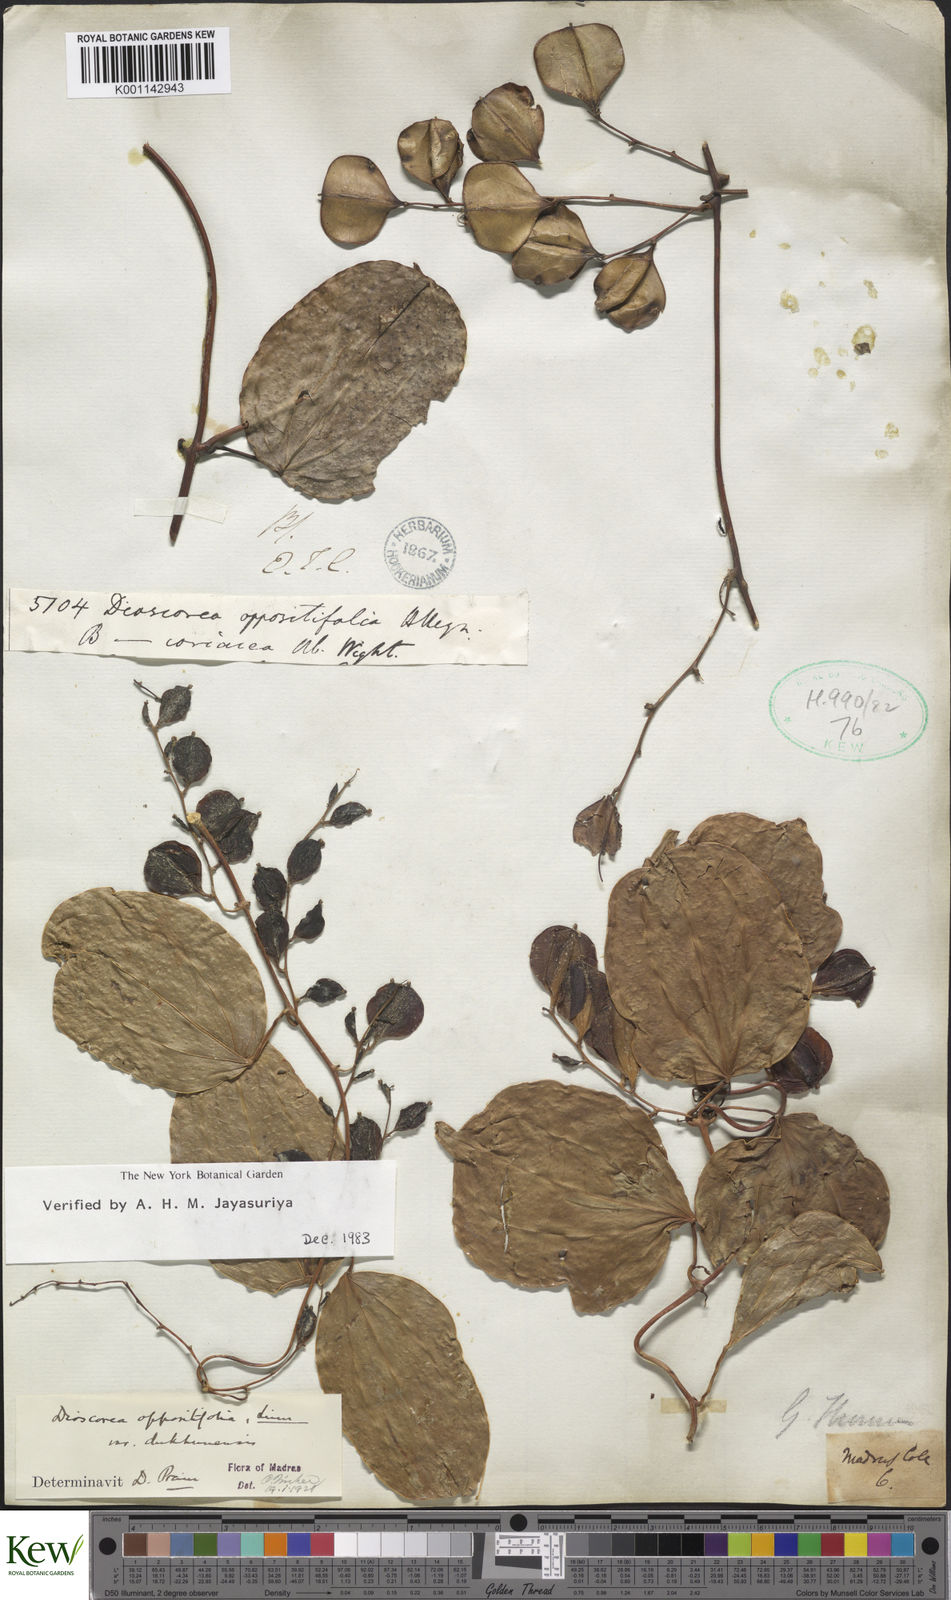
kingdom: Plantae
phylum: Tracheophyta
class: Liliopsida
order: Dioscoreales
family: Dioscoreaceae
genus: Dioscorea
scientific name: Dioscorea oppositifolia
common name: Chinese yam
